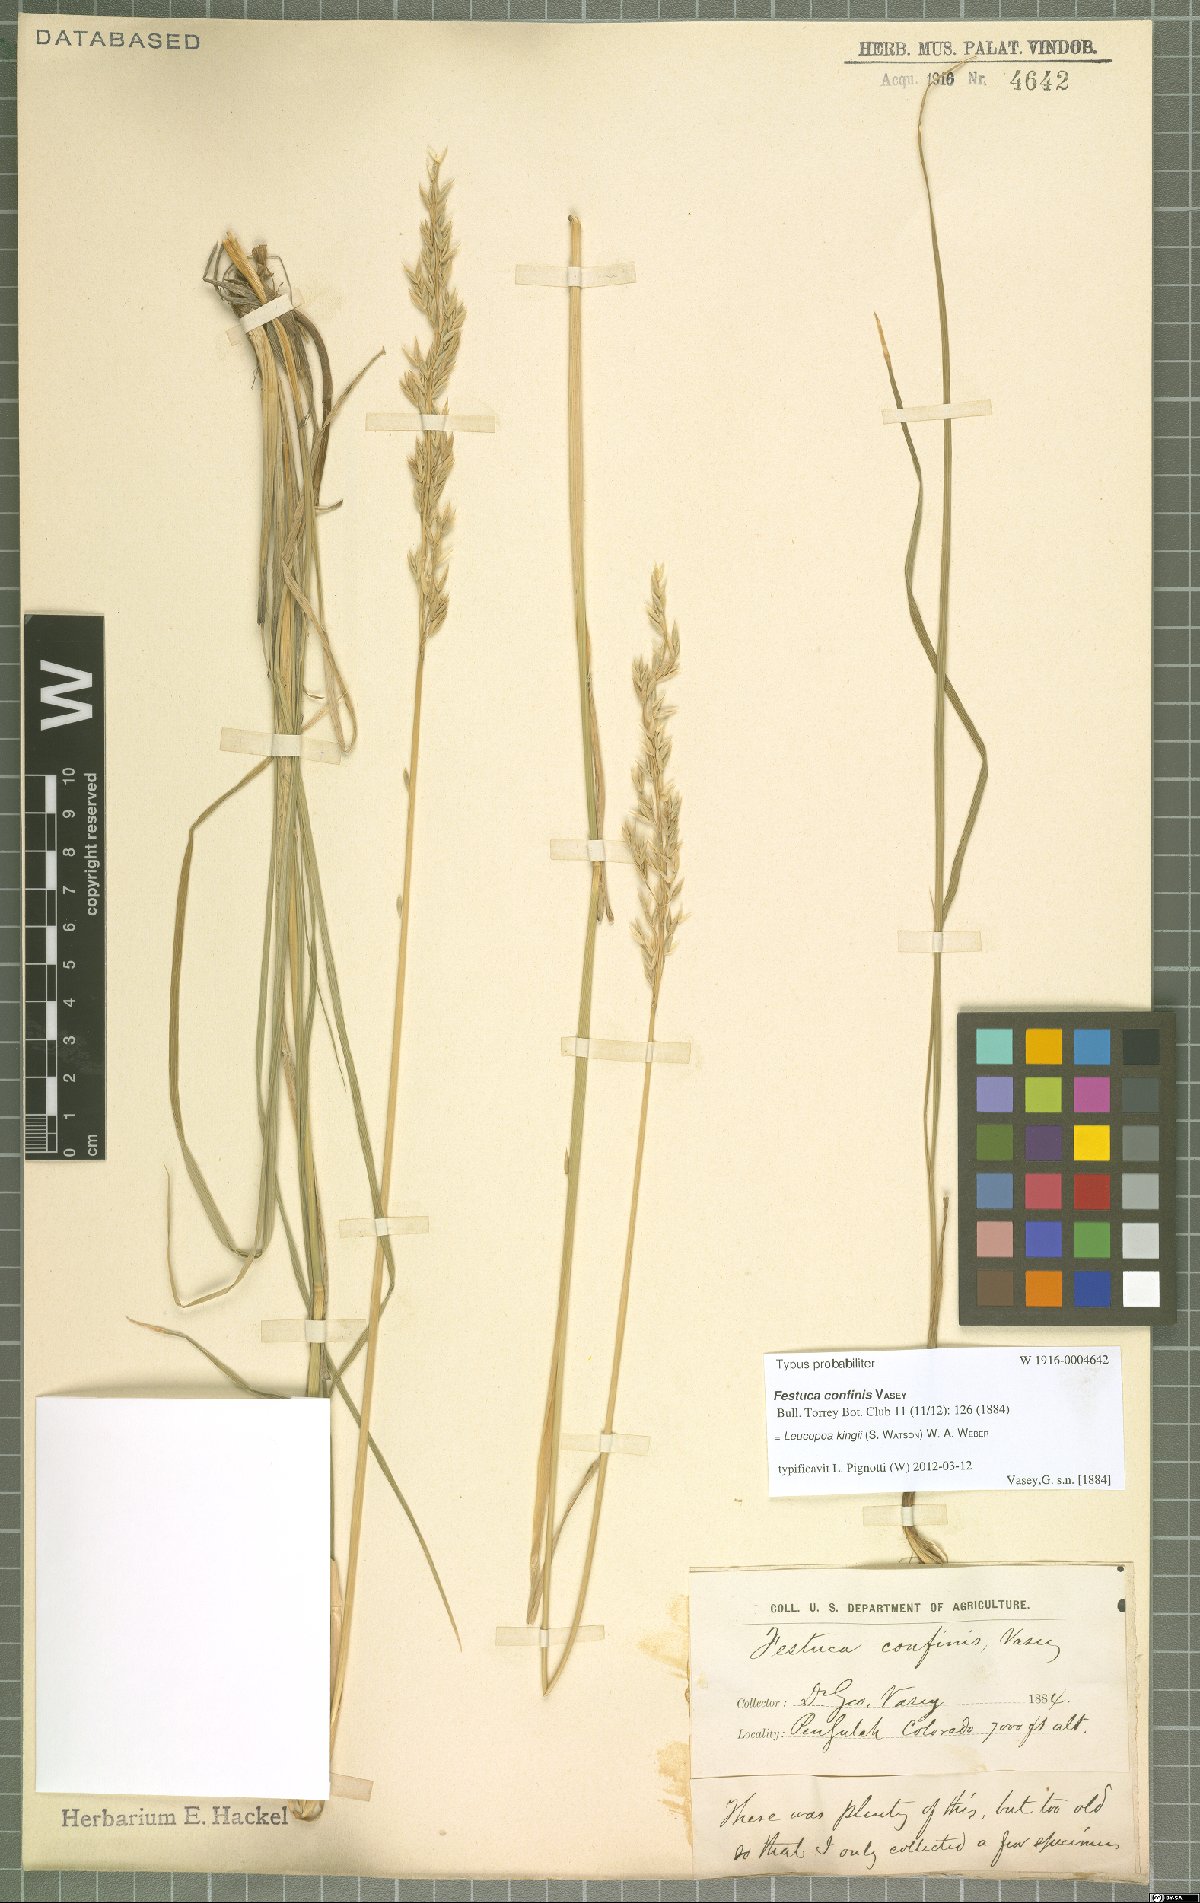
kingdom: Plantae
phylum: Tracheophyta
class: Liliopsida
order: Poales
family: Poaceae
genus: Festuca
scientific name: Festuca kingii
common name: Spike fescue
